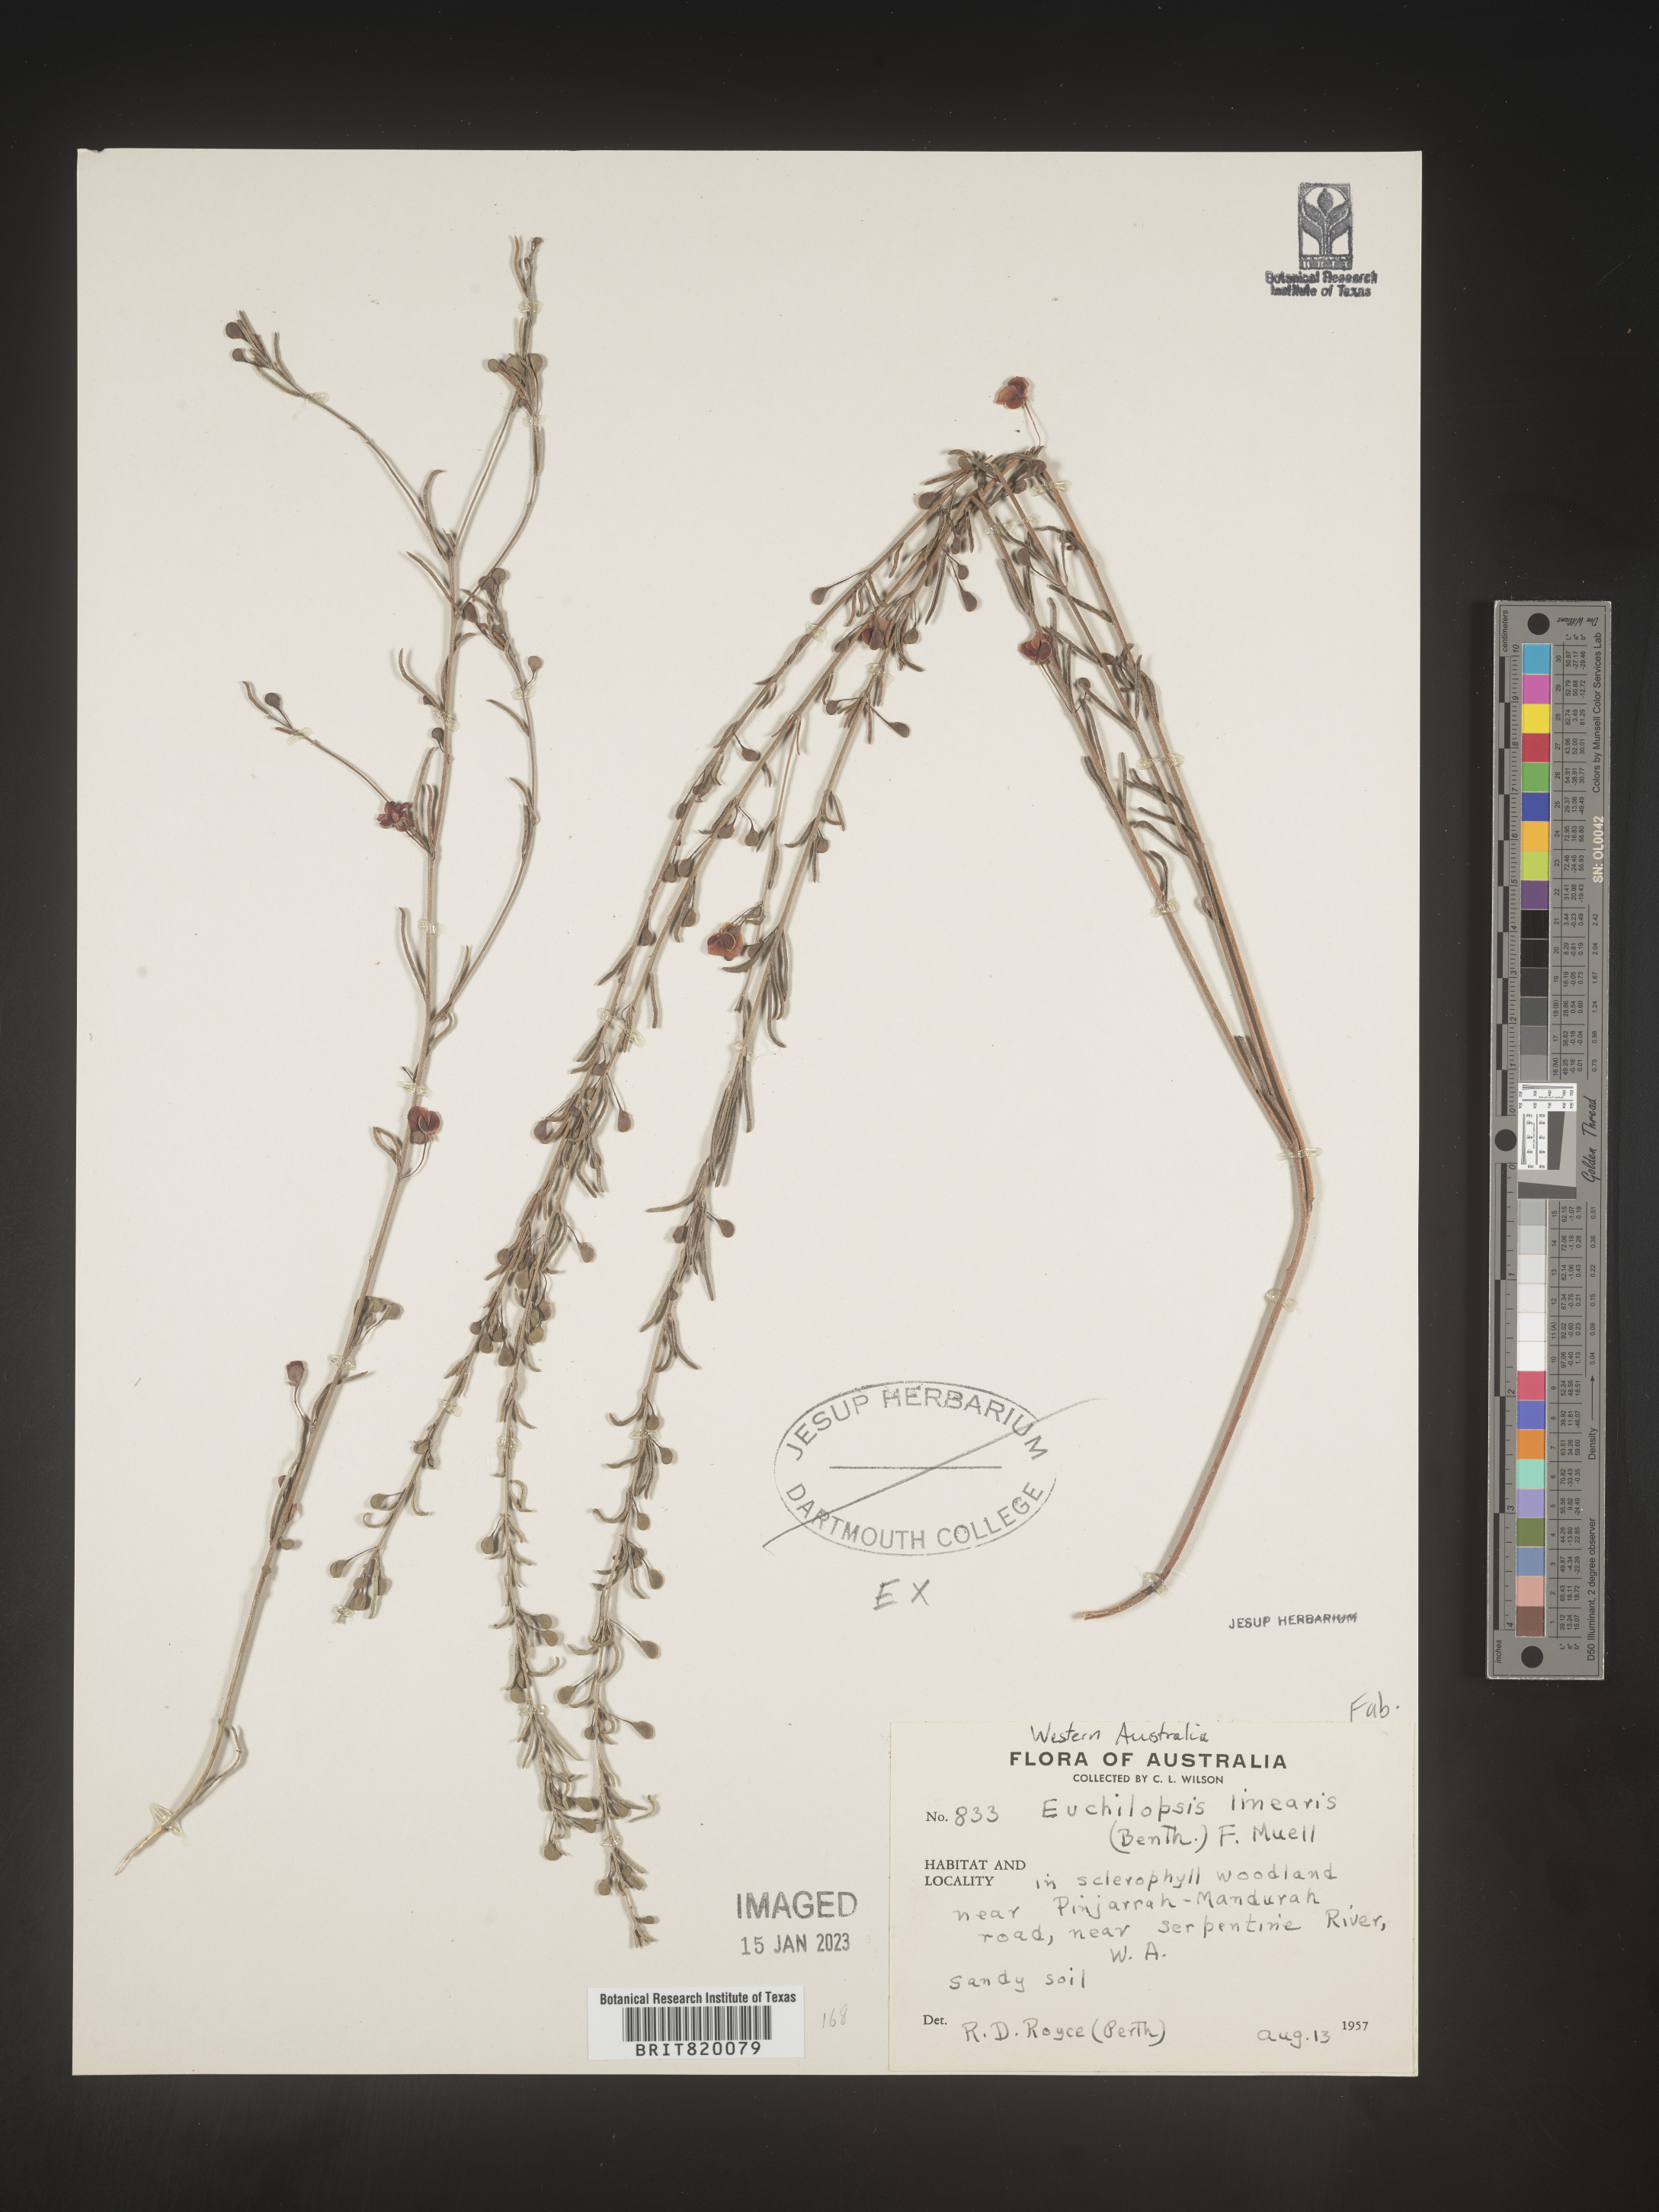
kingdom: Plantae
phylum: Tracheophyta
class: Magnoliopsida
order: Fabales
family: Fabaceae
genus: Euchilopsis
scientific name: Euchilopsis
